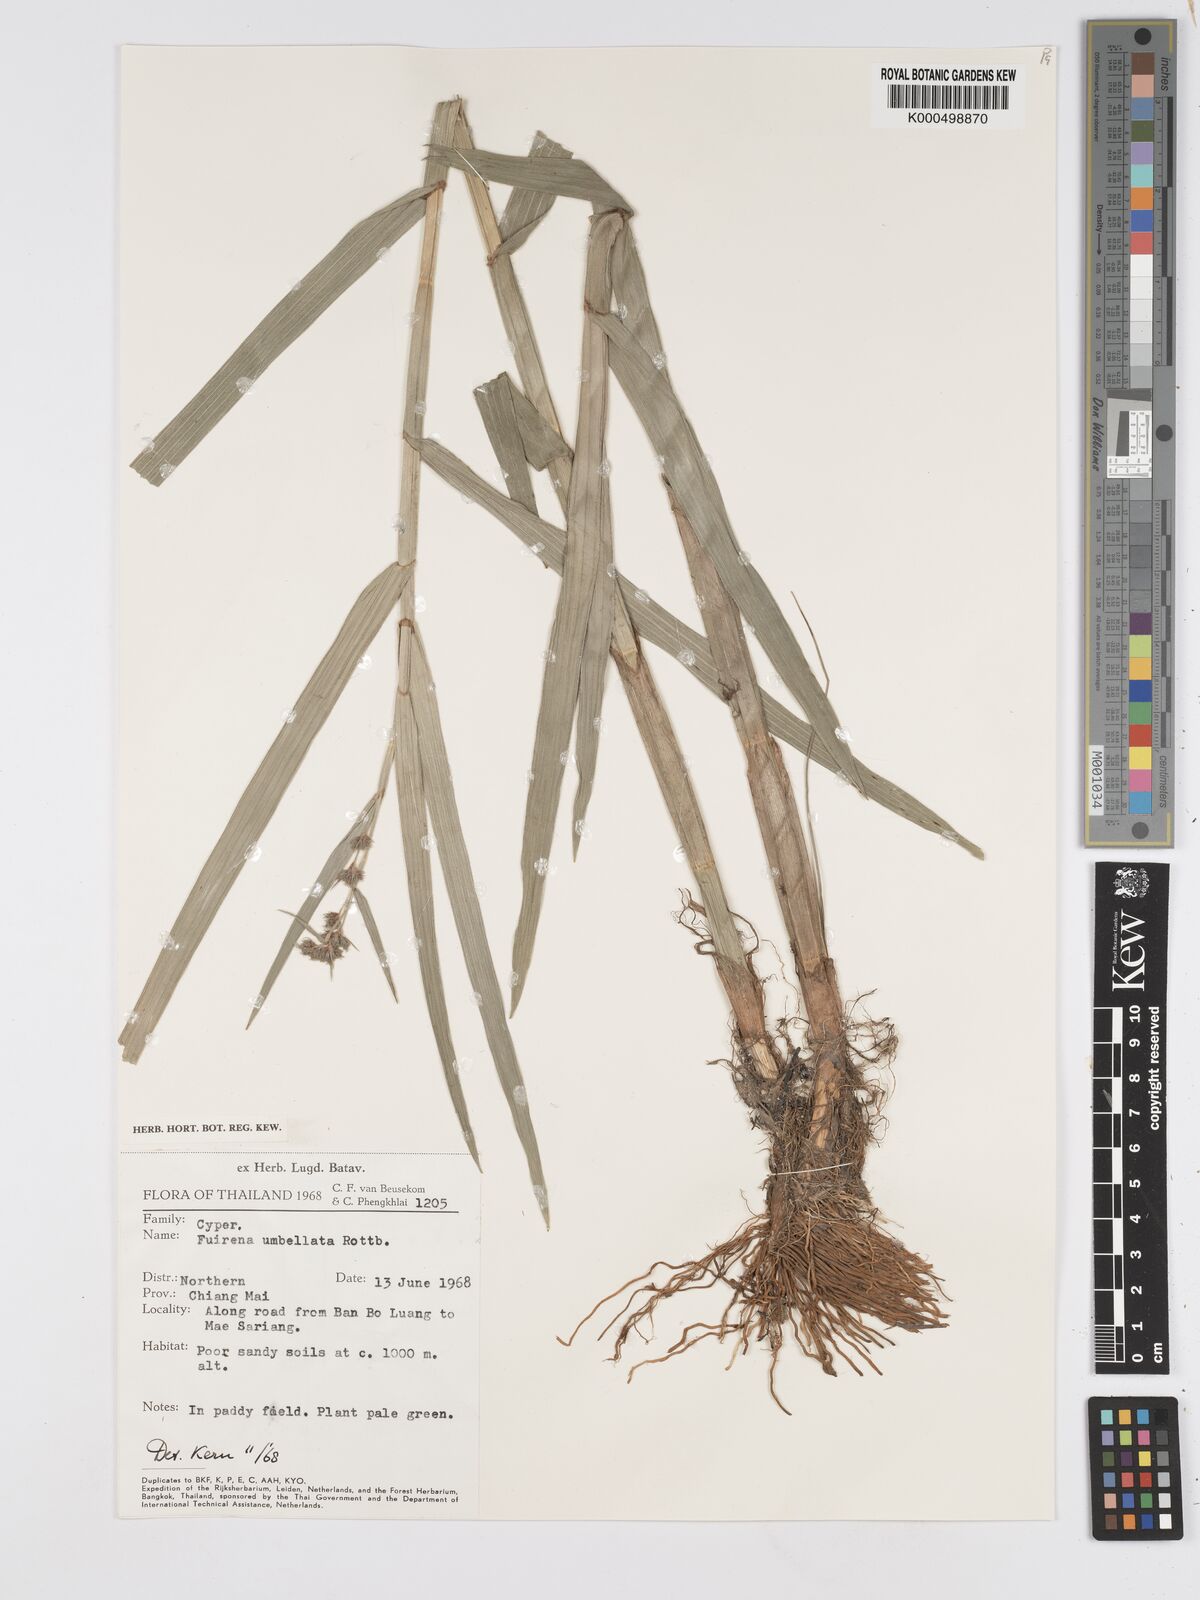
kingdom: Plantae
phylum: Tracheophyta
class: Liliopsida
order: Poales
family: Cyperaceae
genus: Fuirena
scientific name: Fuirena umbellata
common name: Yefen
